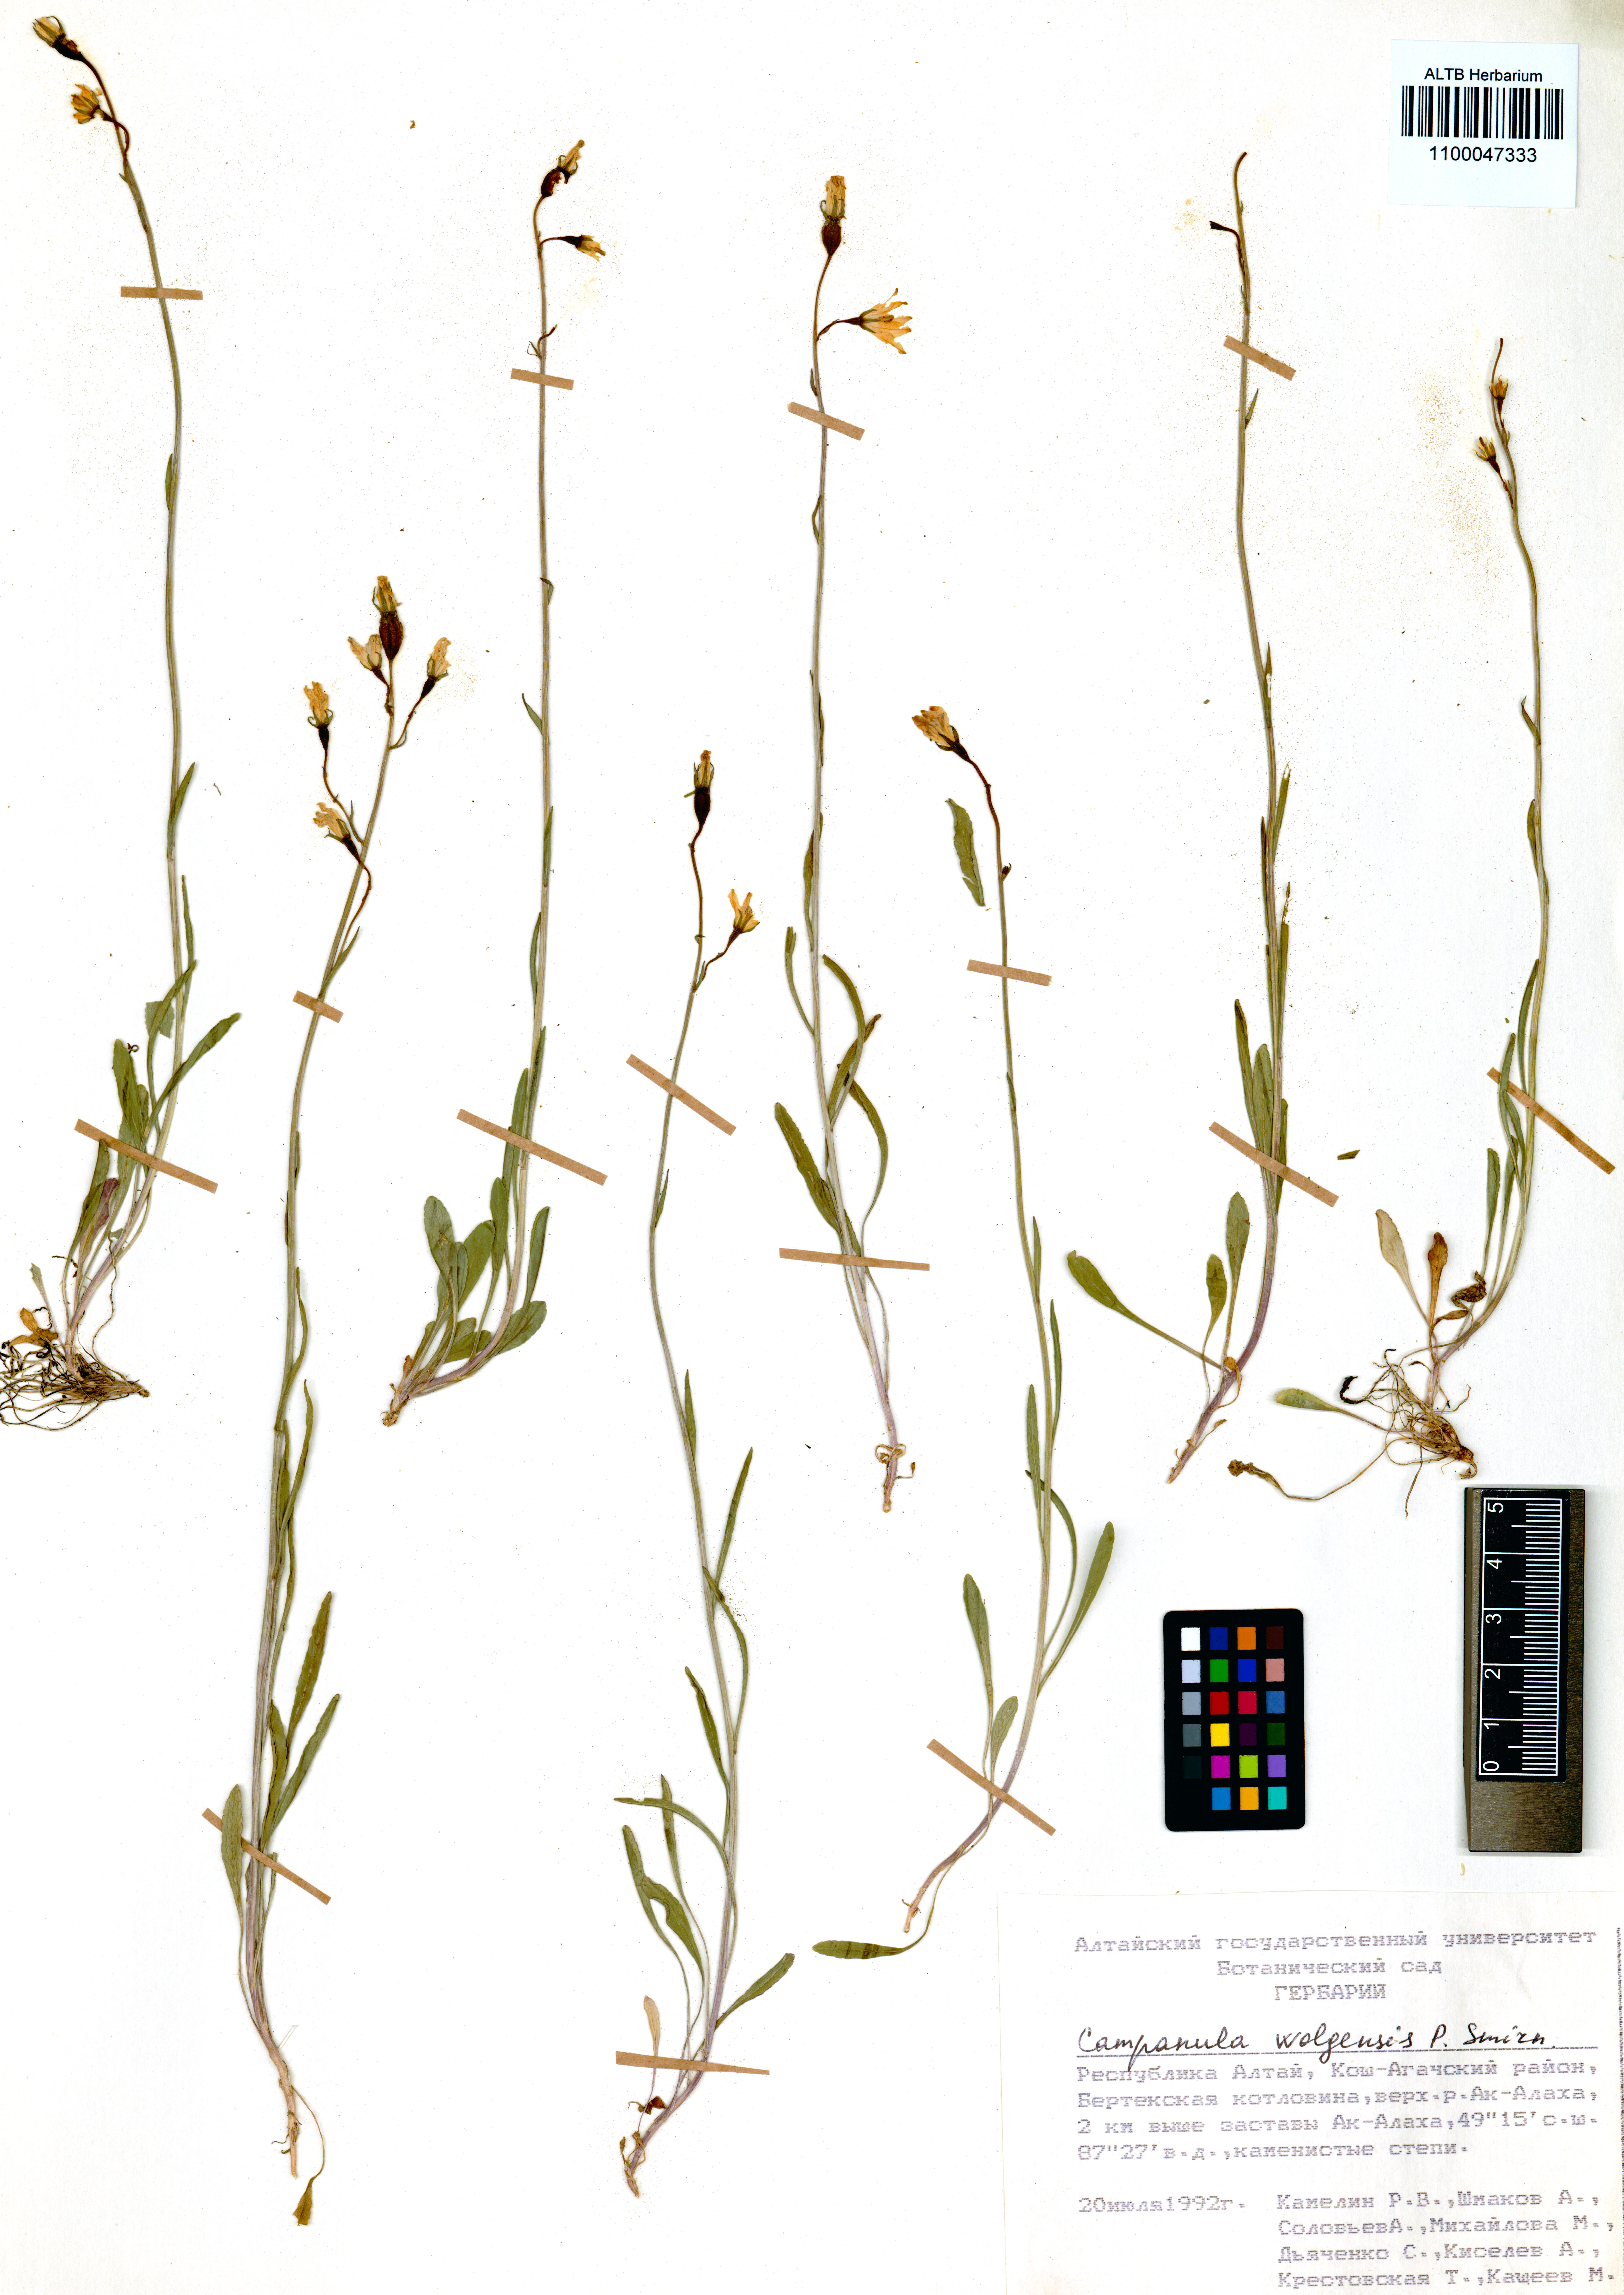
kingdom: Plantae
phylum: Tracheophyta
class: Magnoliopsida
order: Asterales
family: Campanulaceae
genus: Campanula
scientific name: Campanula stevenii
